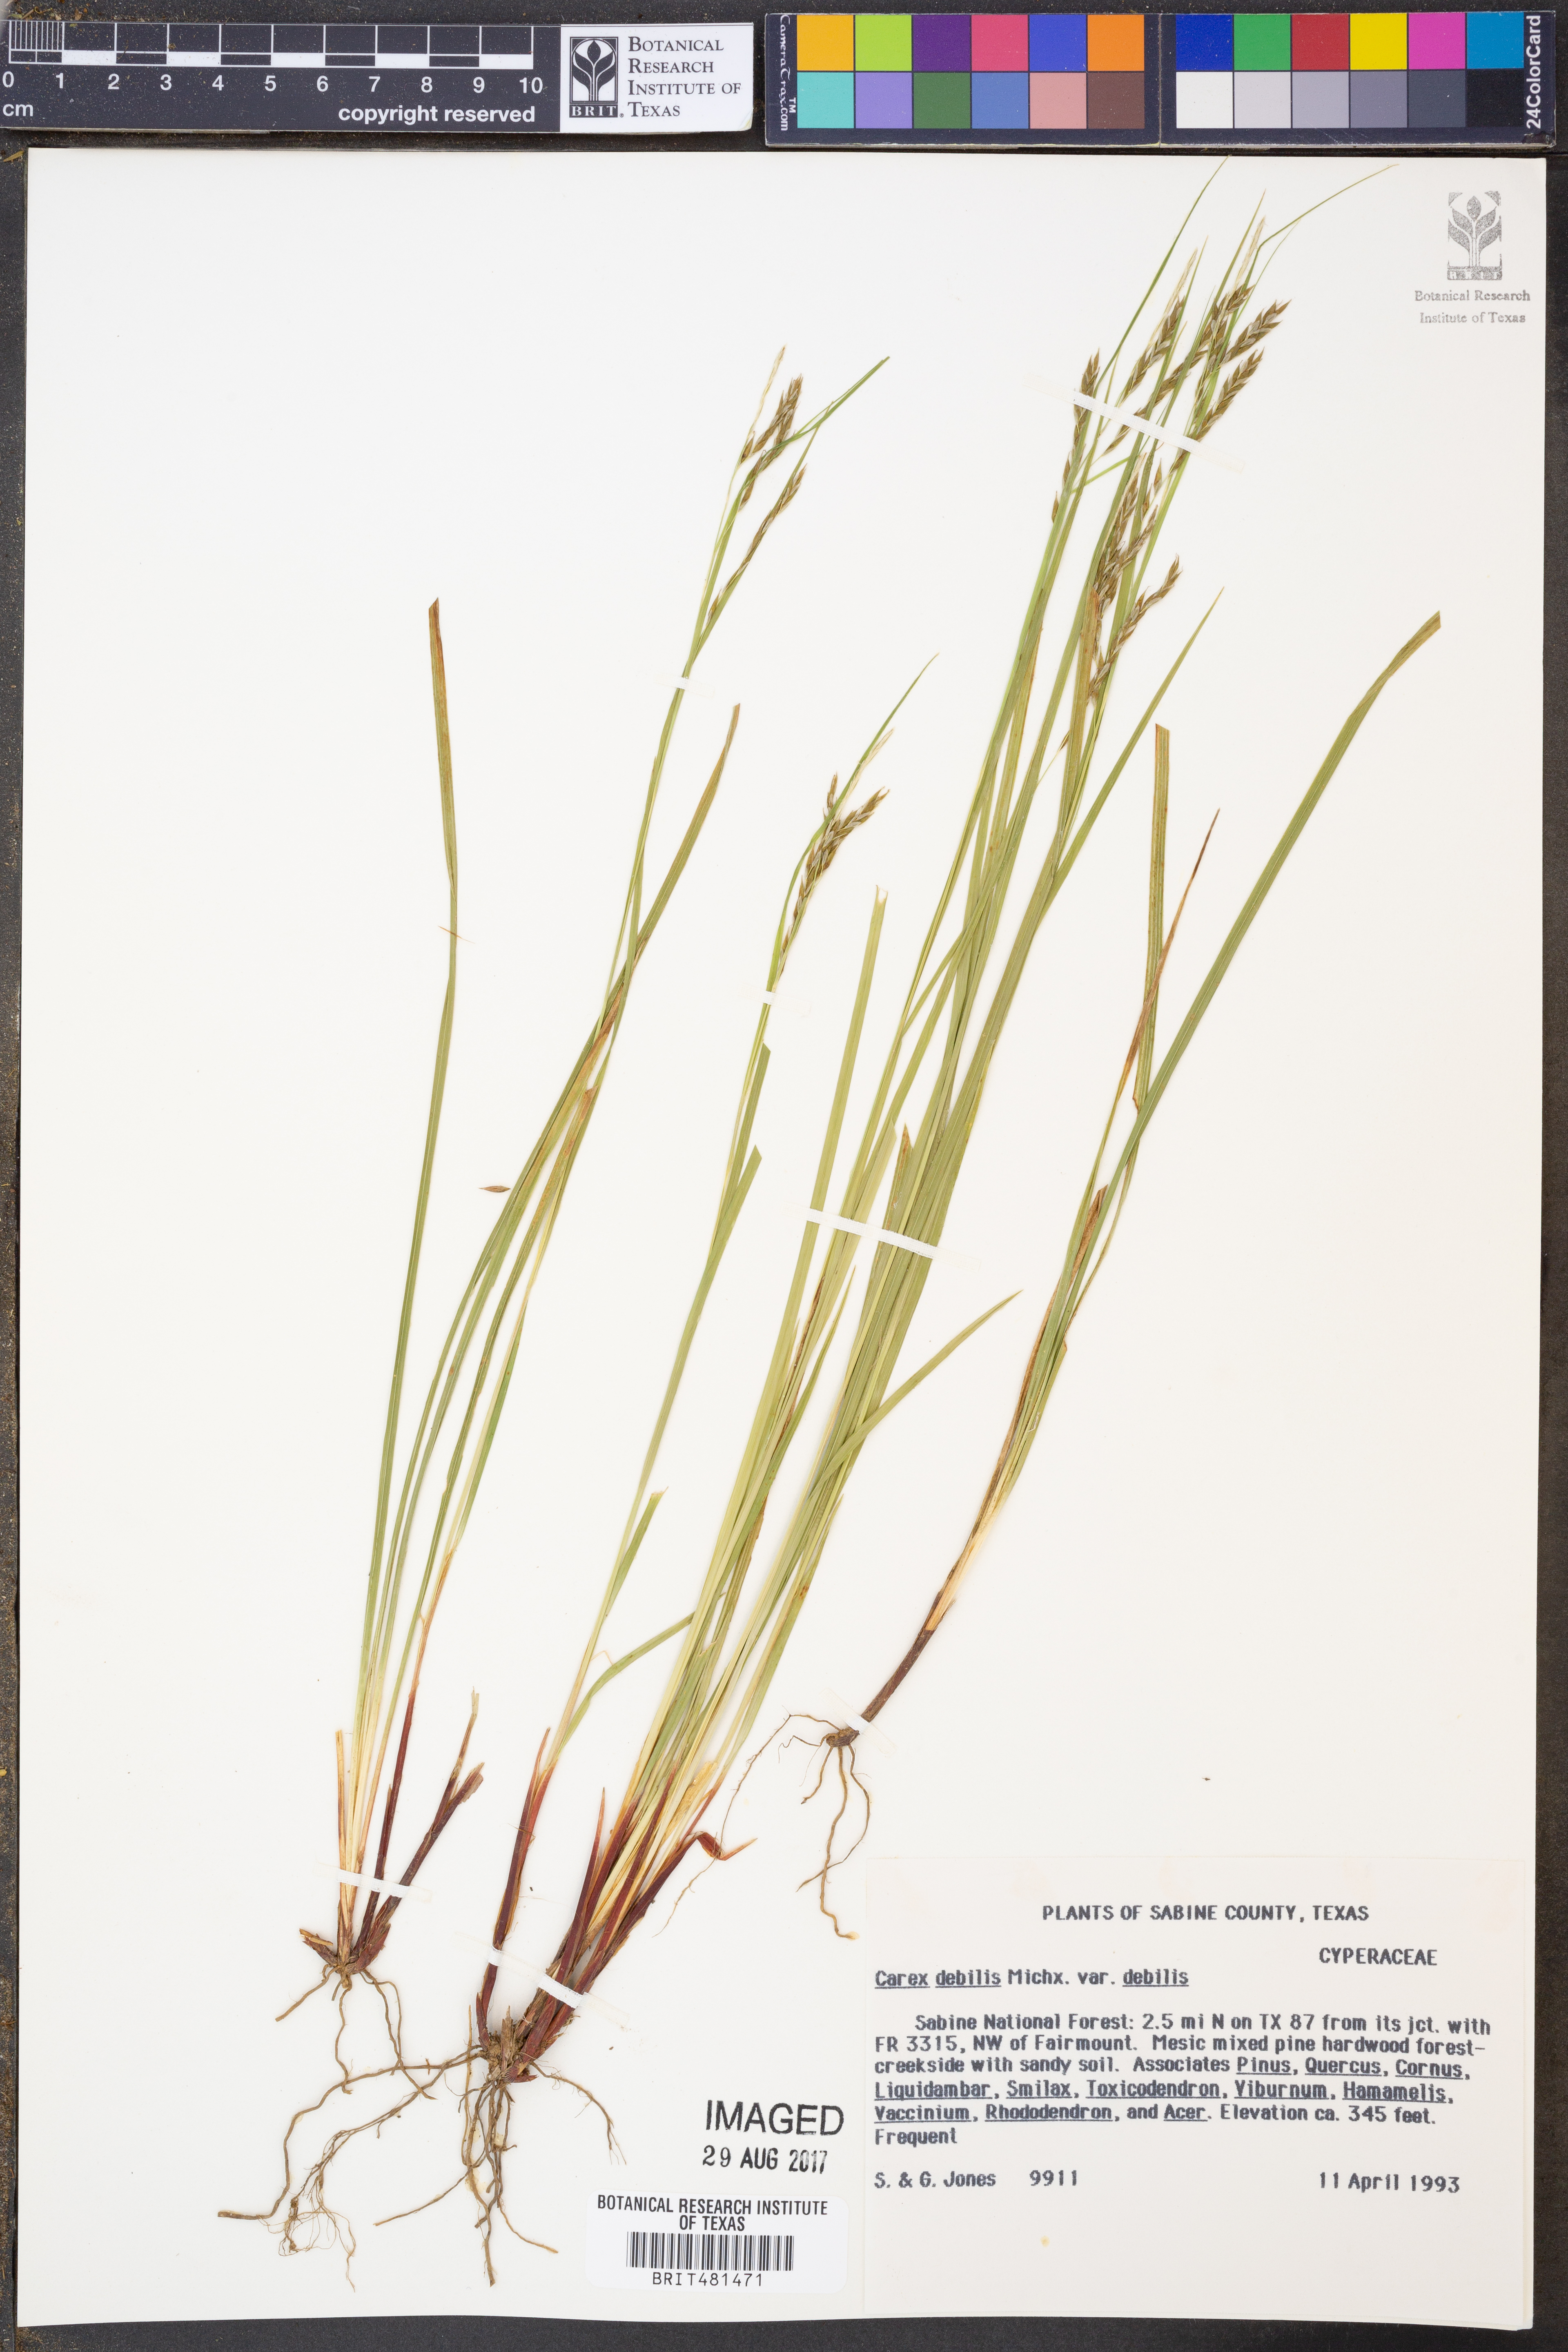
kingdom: Plantae
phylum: Tracheophyta
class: Liliopsida
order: Poales
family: Cyperaceae
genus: Carex
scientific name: Carex debilis
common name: White-edge sedge
